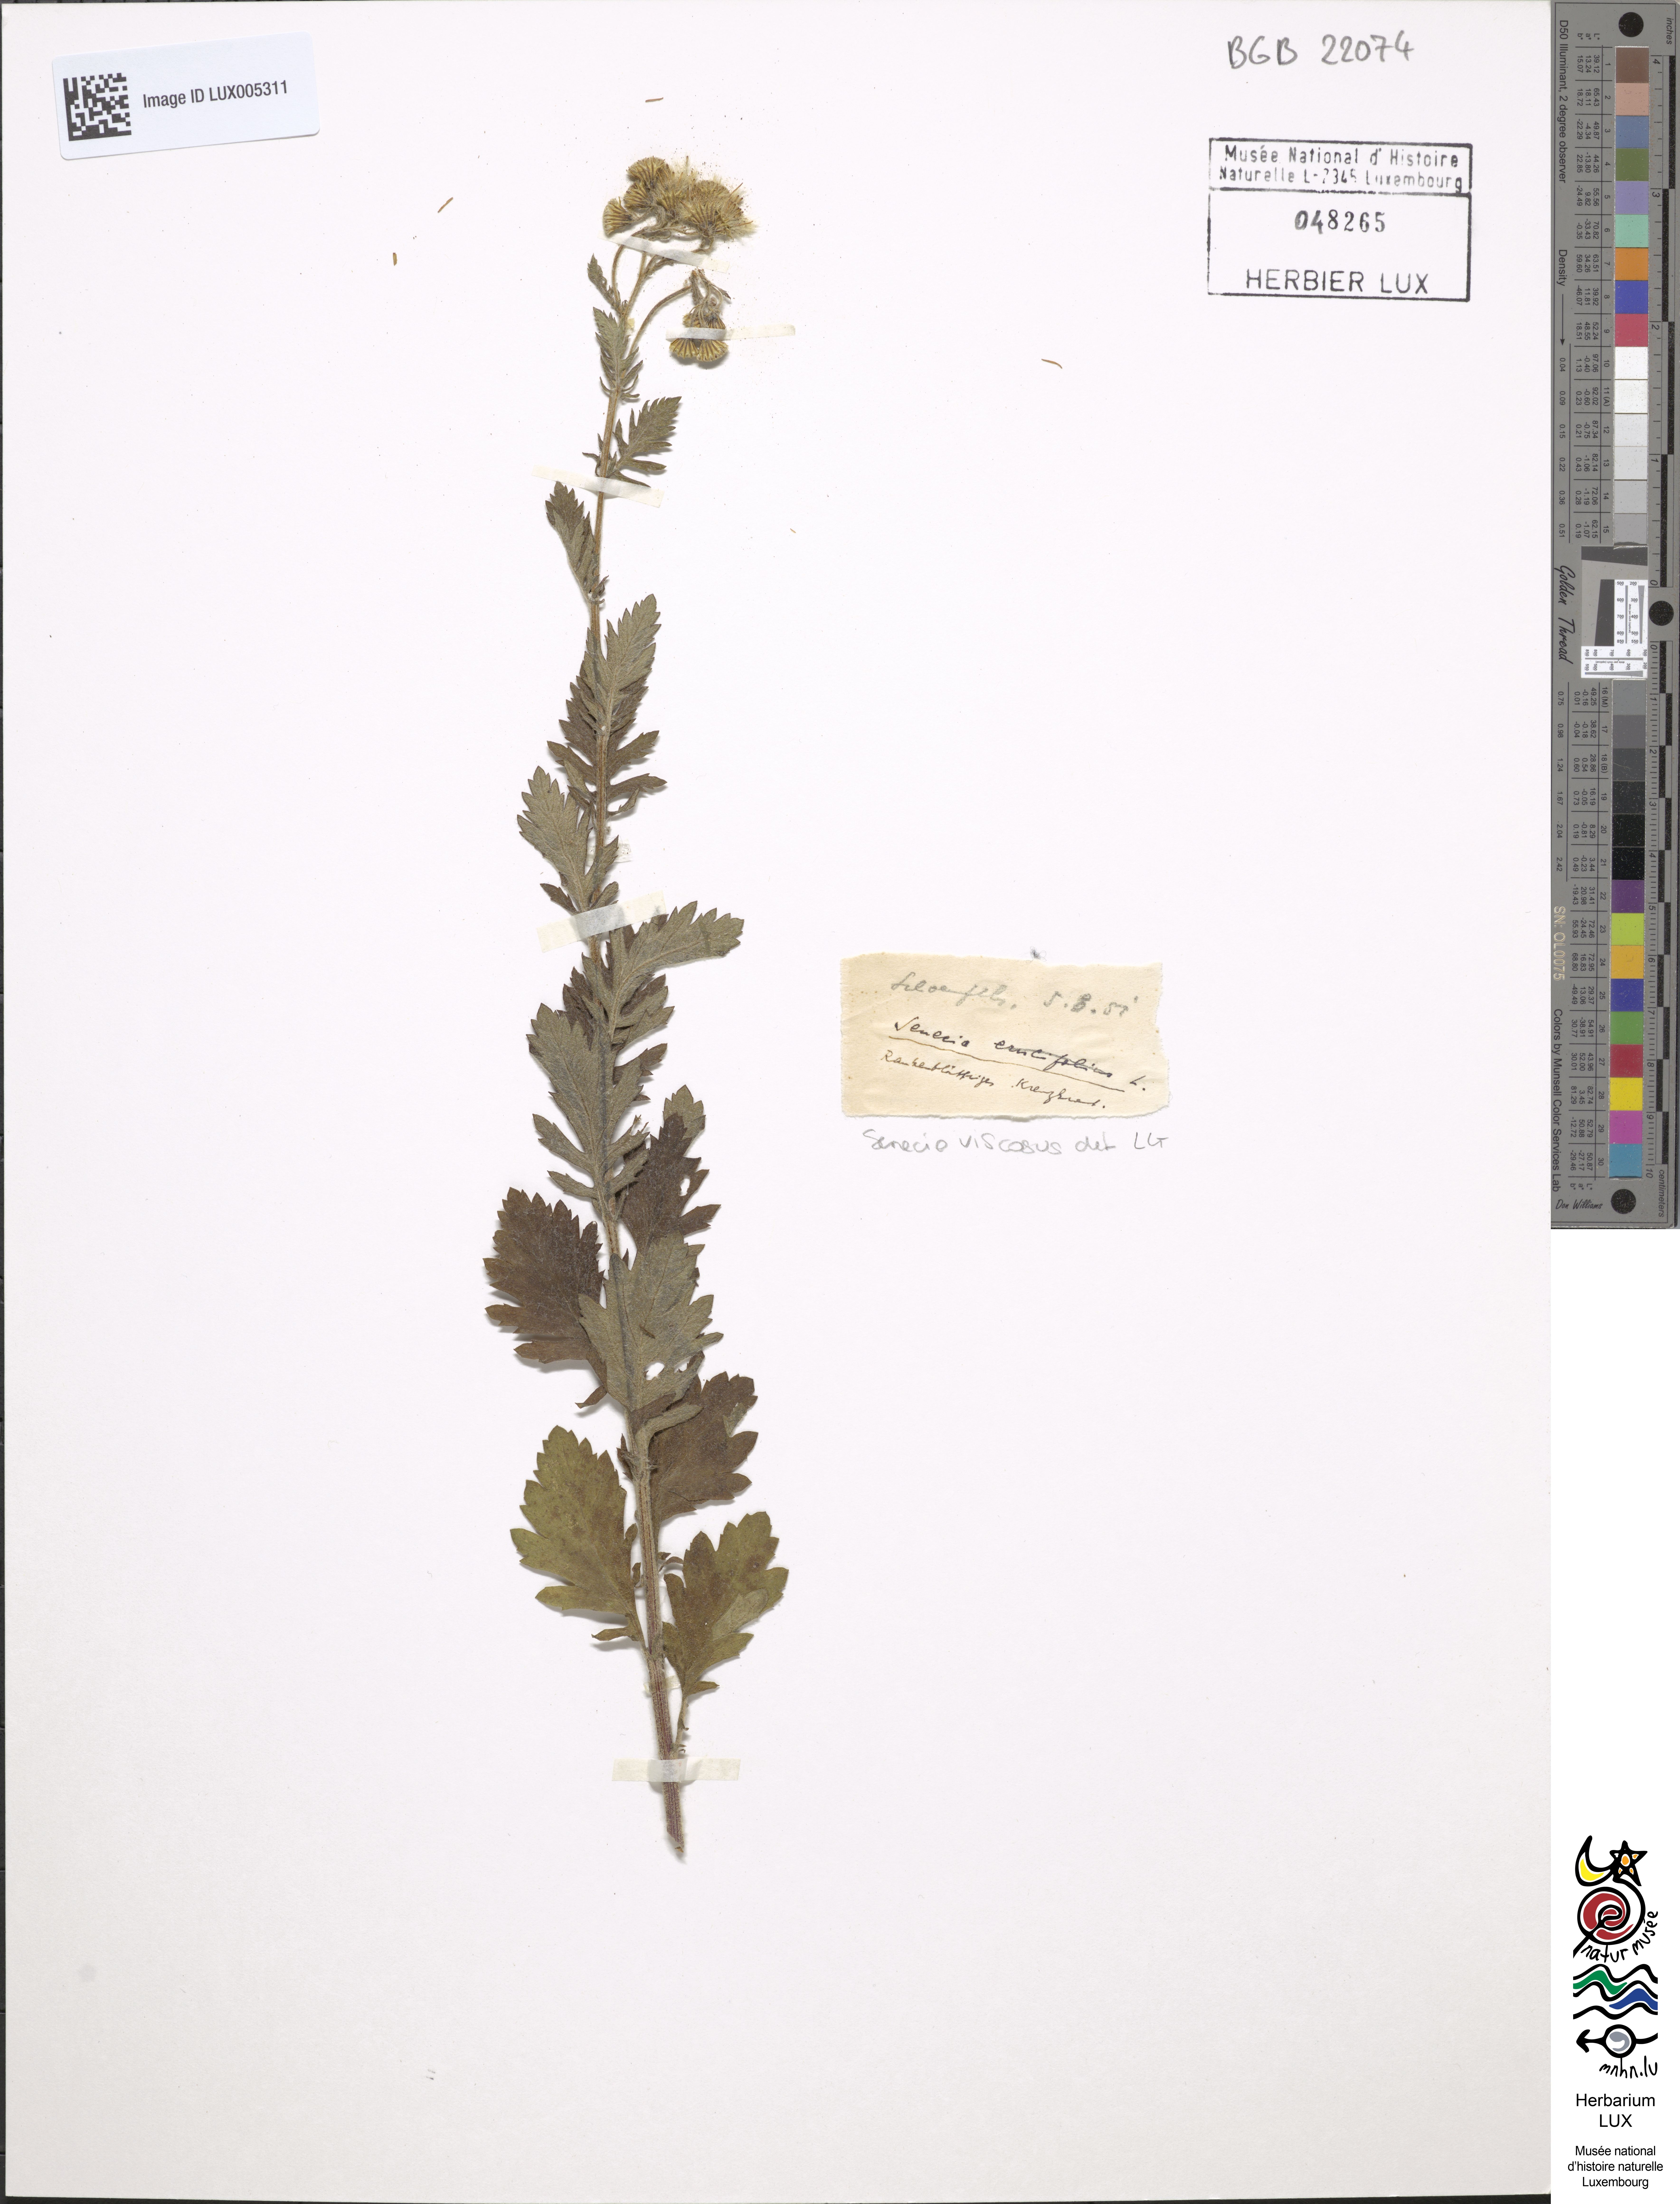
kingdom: Plantae
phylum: Tracheophyta
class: Magnoliopsida
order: Asterales
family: Asteraceae
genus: Senecio
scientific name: Senecio viscosus
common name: Sticky groundsel
